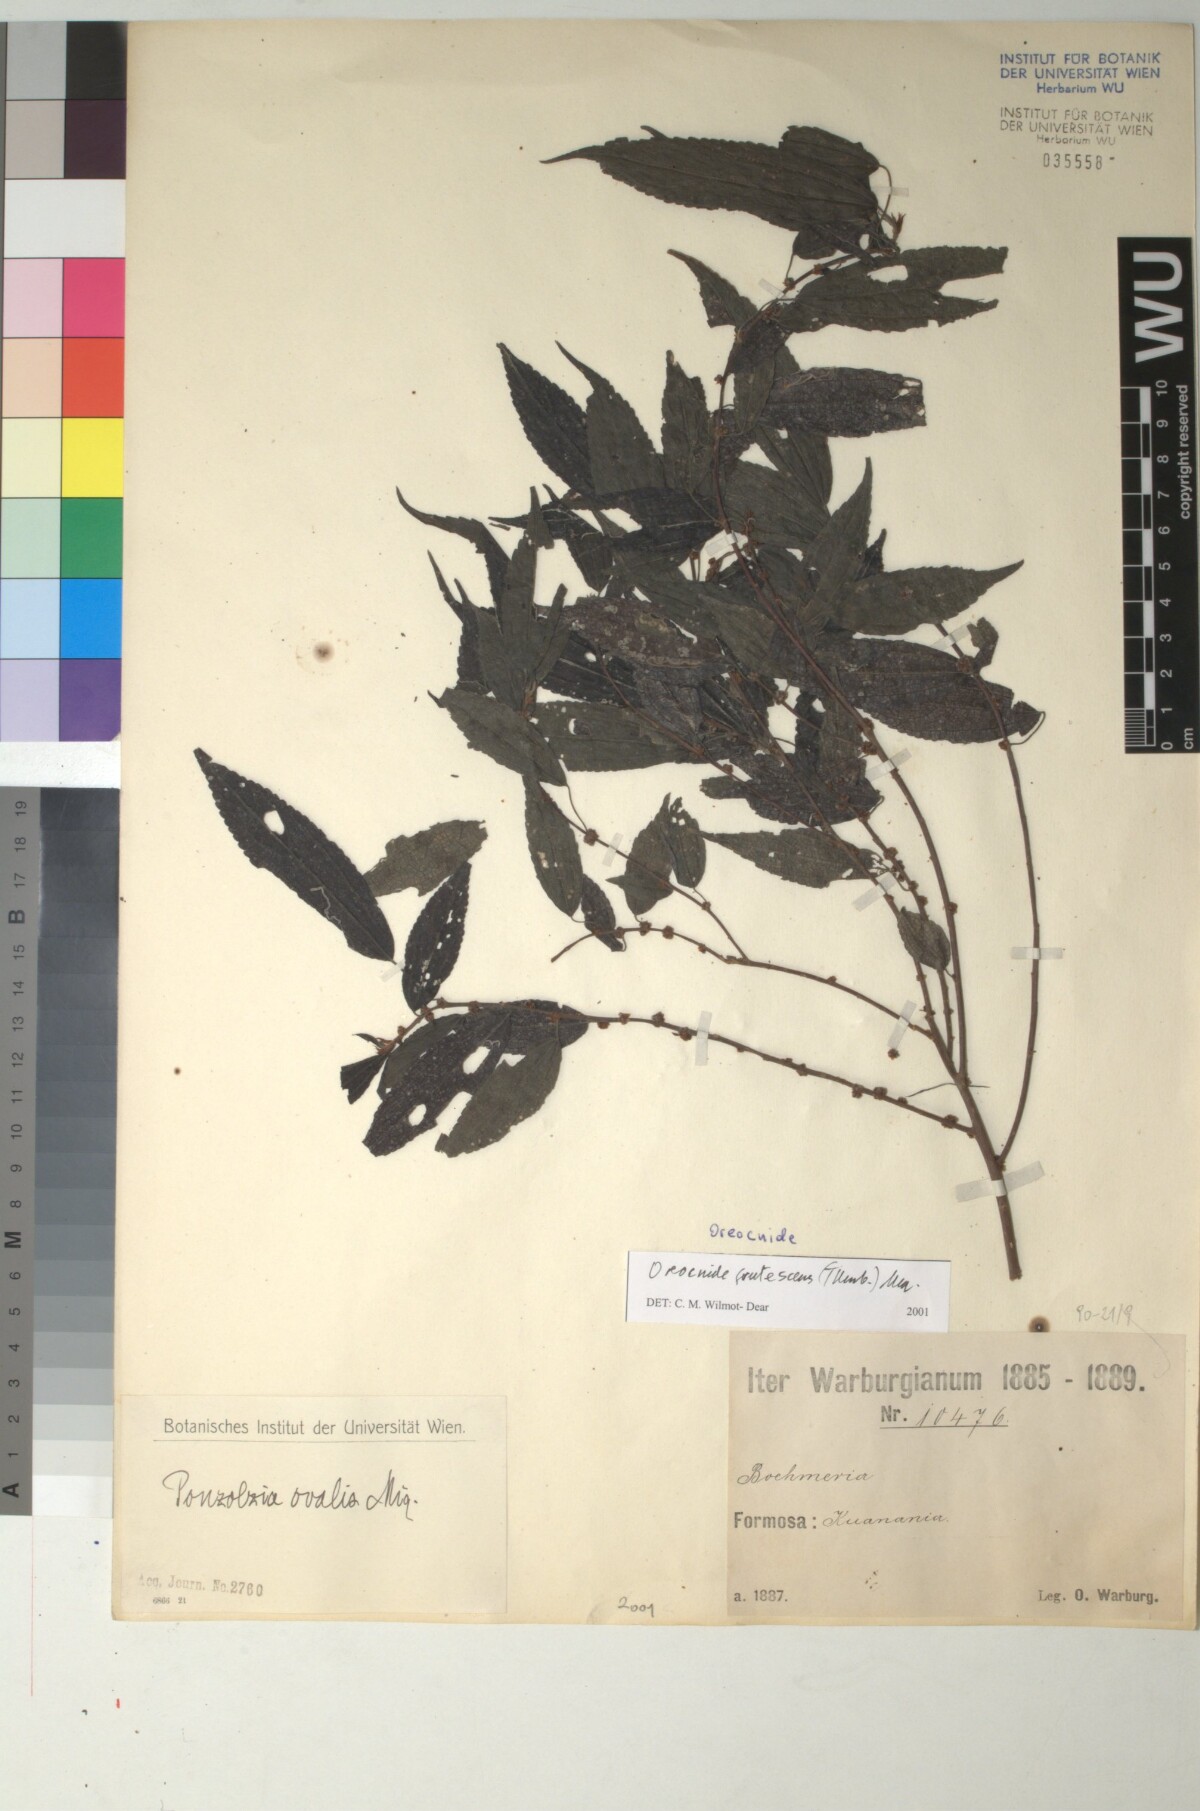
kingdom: Plantae
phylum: Tracheophyta
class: Magnoliopsida
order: Rosales
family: Urticaceae
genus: Oreocnide
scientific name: Oreocnide frutescens
